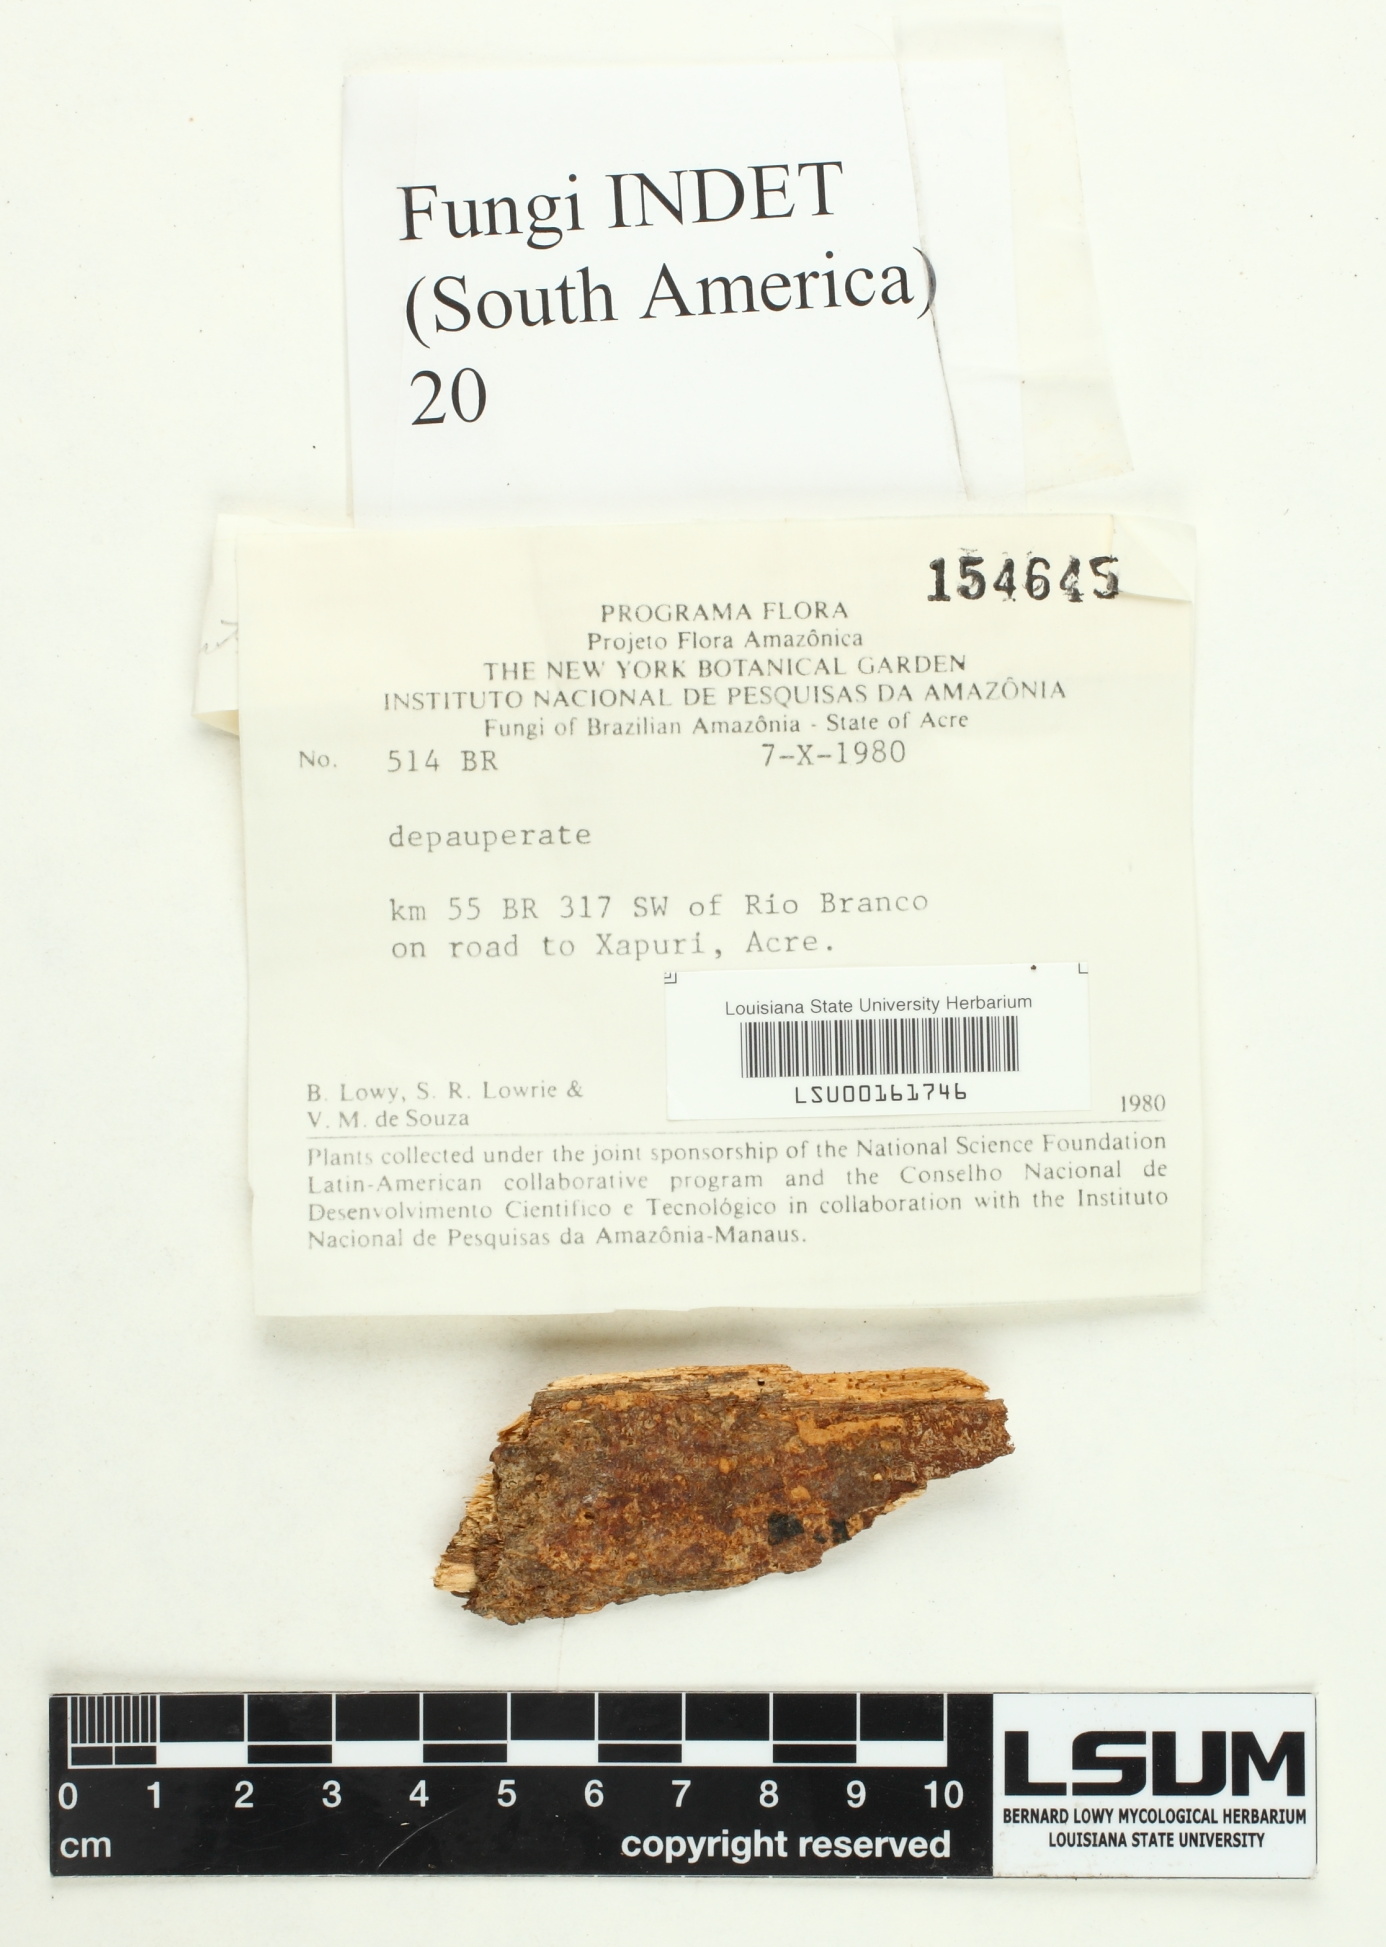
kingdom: Fungi
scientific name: Fungi
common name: Fungi
